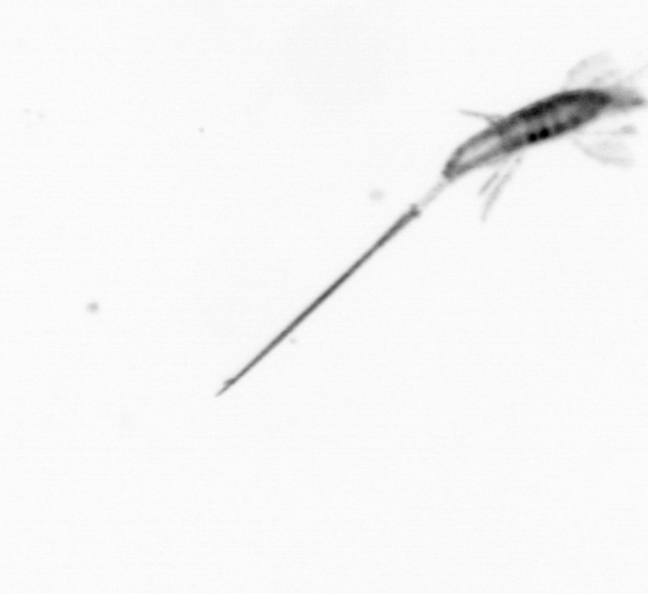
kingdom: Animalia
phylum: Arthropoda
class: Copepoda
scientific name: Copepoda
